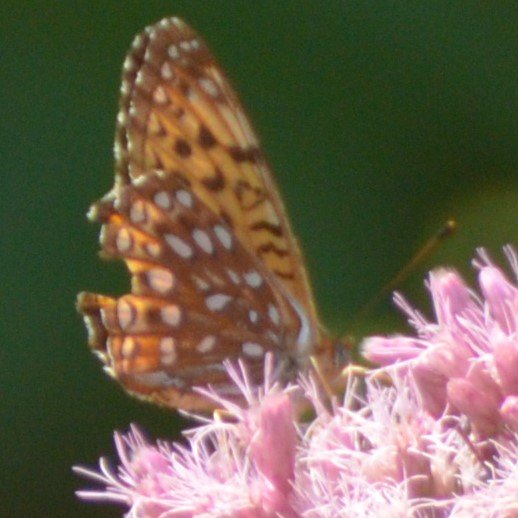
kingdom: Animalia
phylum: Arthropoda
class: Insecta
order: Lepidoptera
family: Nymphalidae
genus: Speyeria
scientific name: Speyeria atlantis
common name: Atlantis Fritillary
